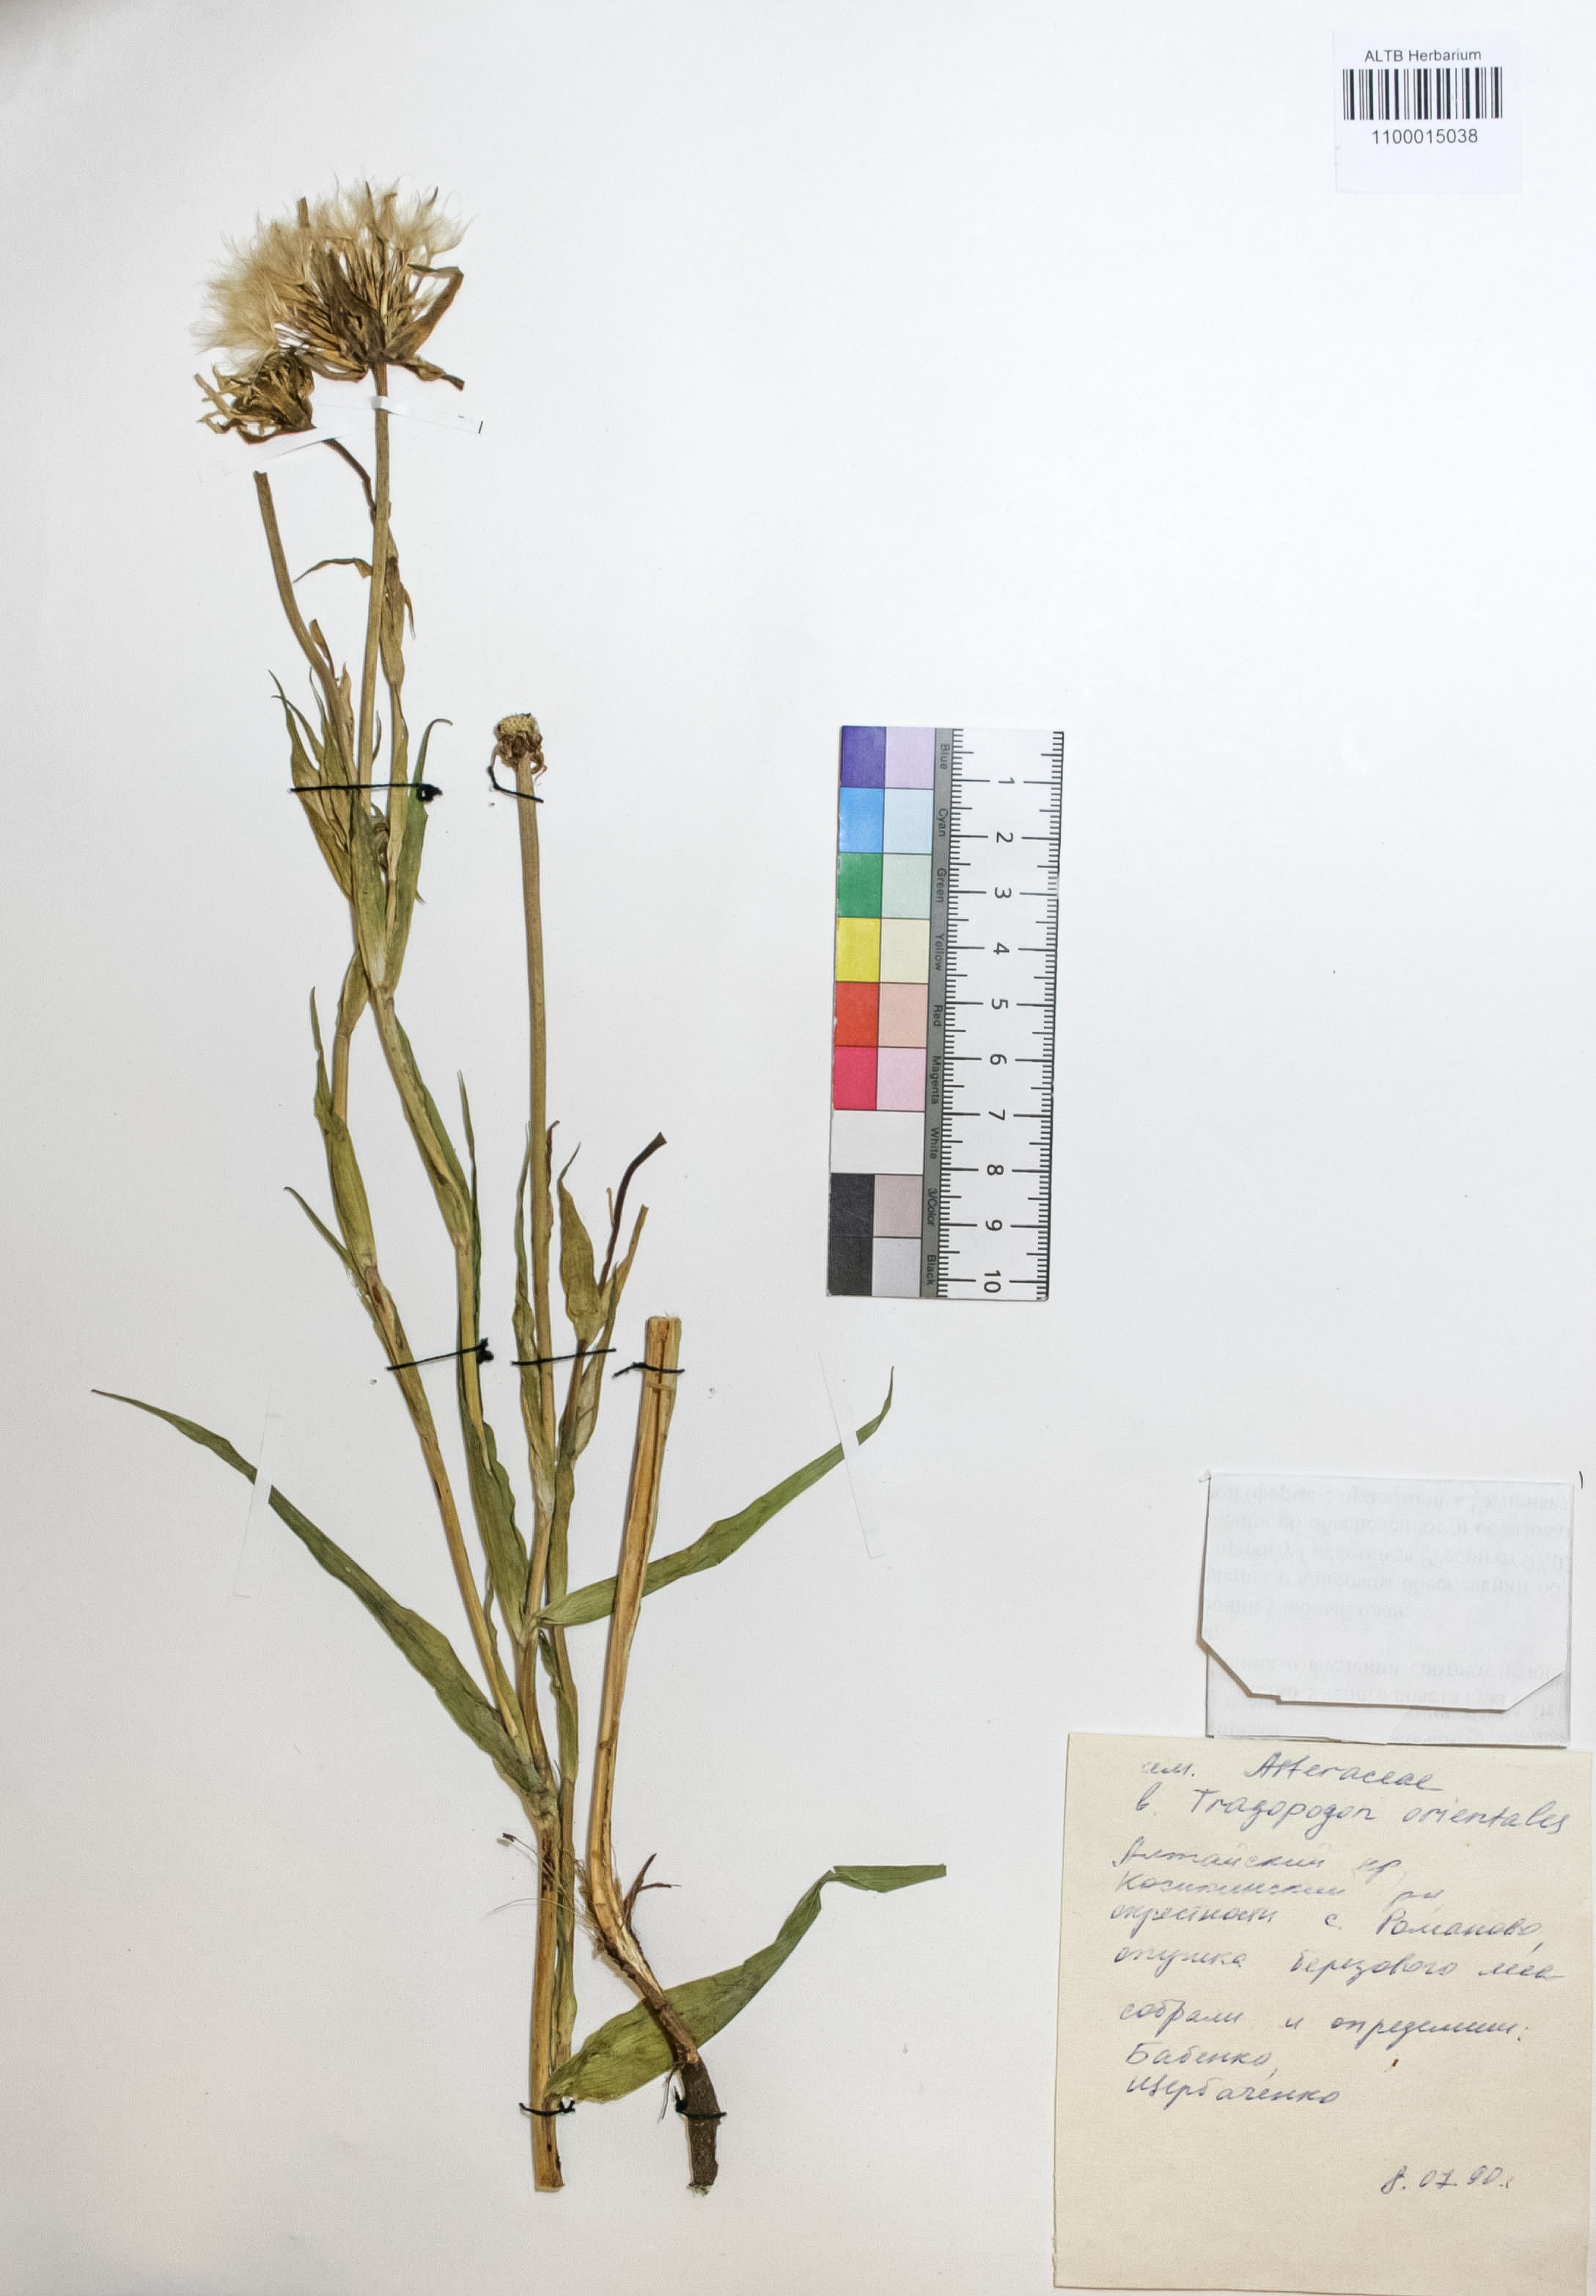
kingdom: Plantae
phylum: Tracheophyta
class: Magnoliopsida
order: Asterales
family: Asteraceae
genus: Tragopogon
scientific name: Tragopogon orientalis
